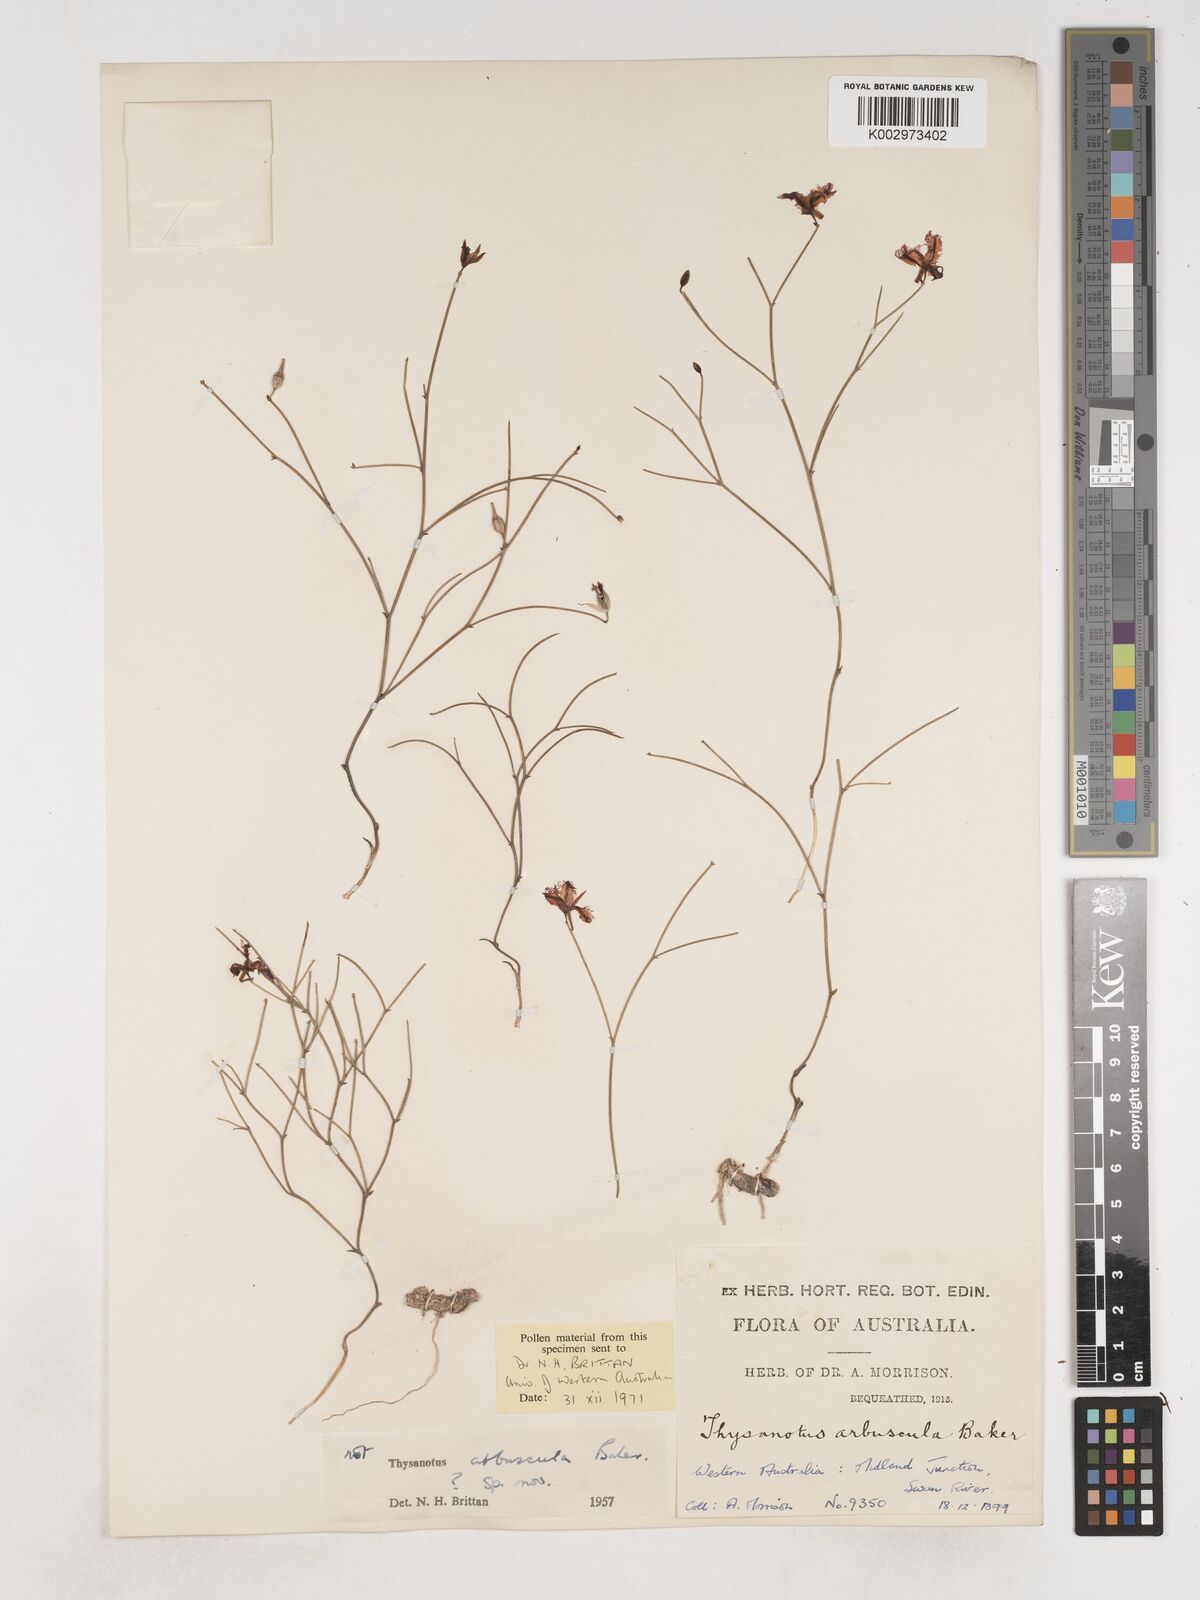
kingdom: Plantae
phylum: Tracheophyta
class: Liliopsida
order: Asparagales
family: Asparagaceae
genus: Thysanotus
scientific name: Thysanotus
